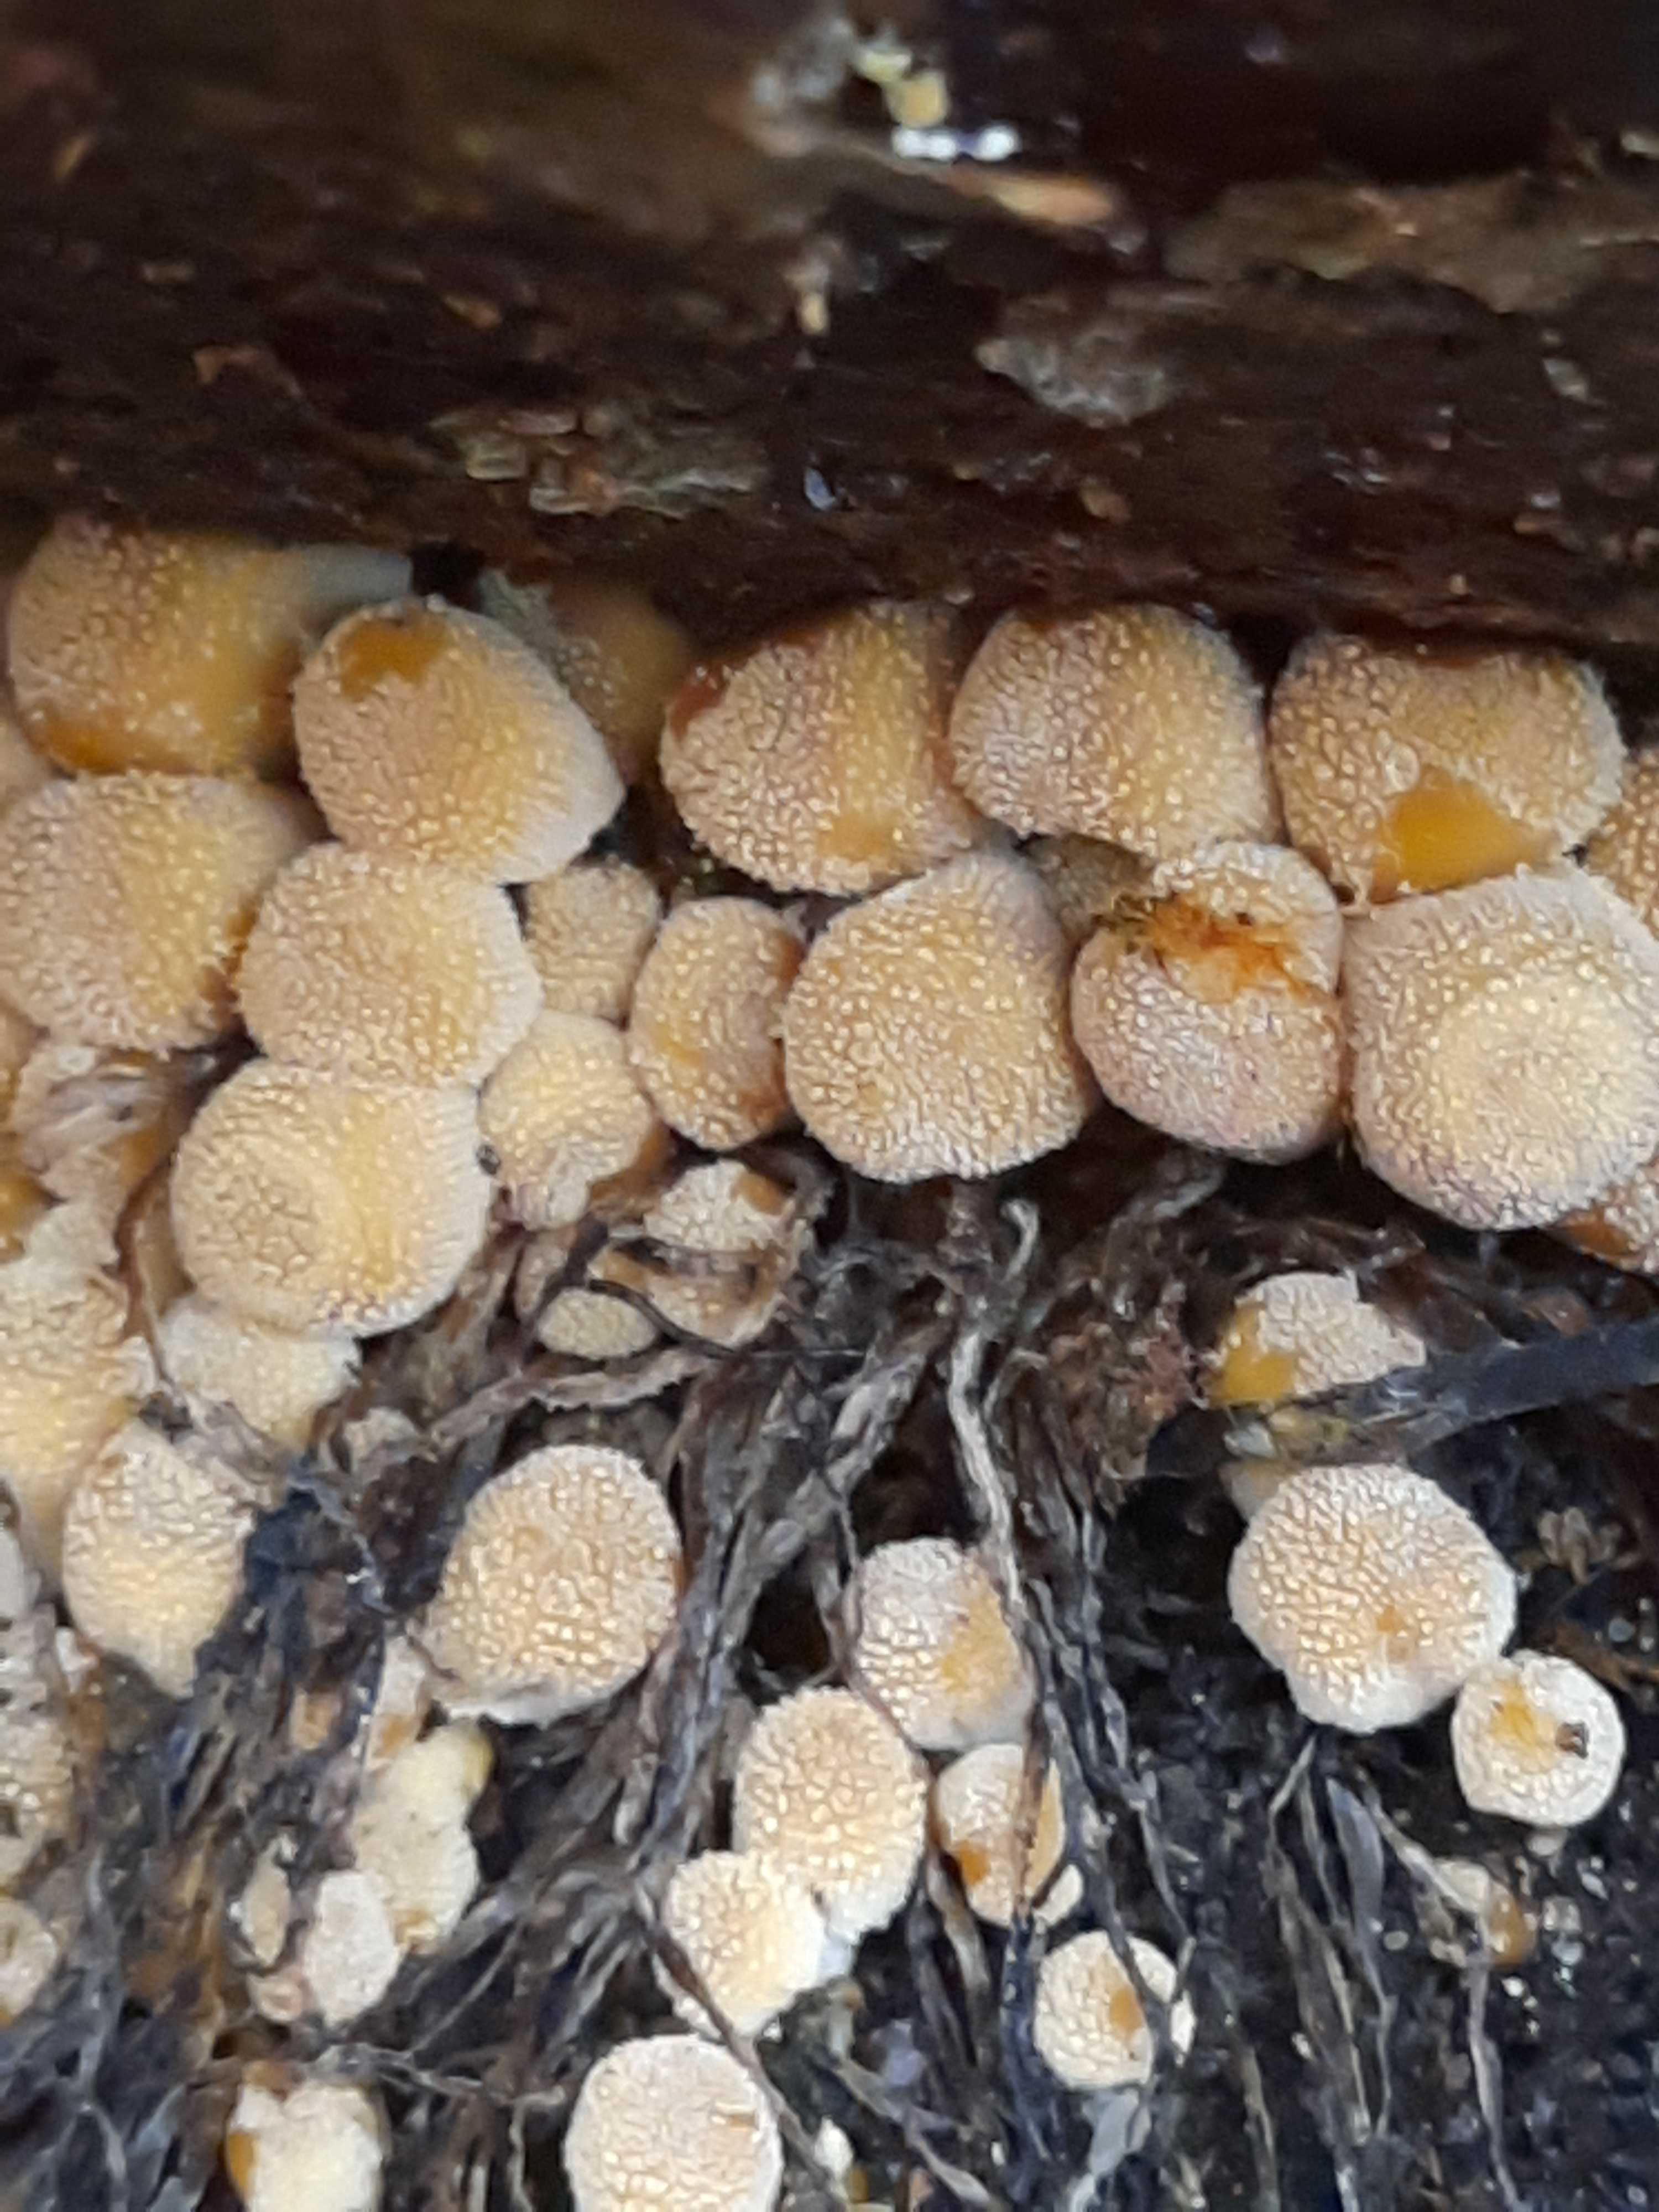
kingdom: Fungi
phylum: Basidiomycota
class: Agaricomycetes
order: Agaricales
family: Psathyrellaceae
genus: Coprinellus
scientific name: Coprinellus micaceus
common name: glimmer-blækhat
